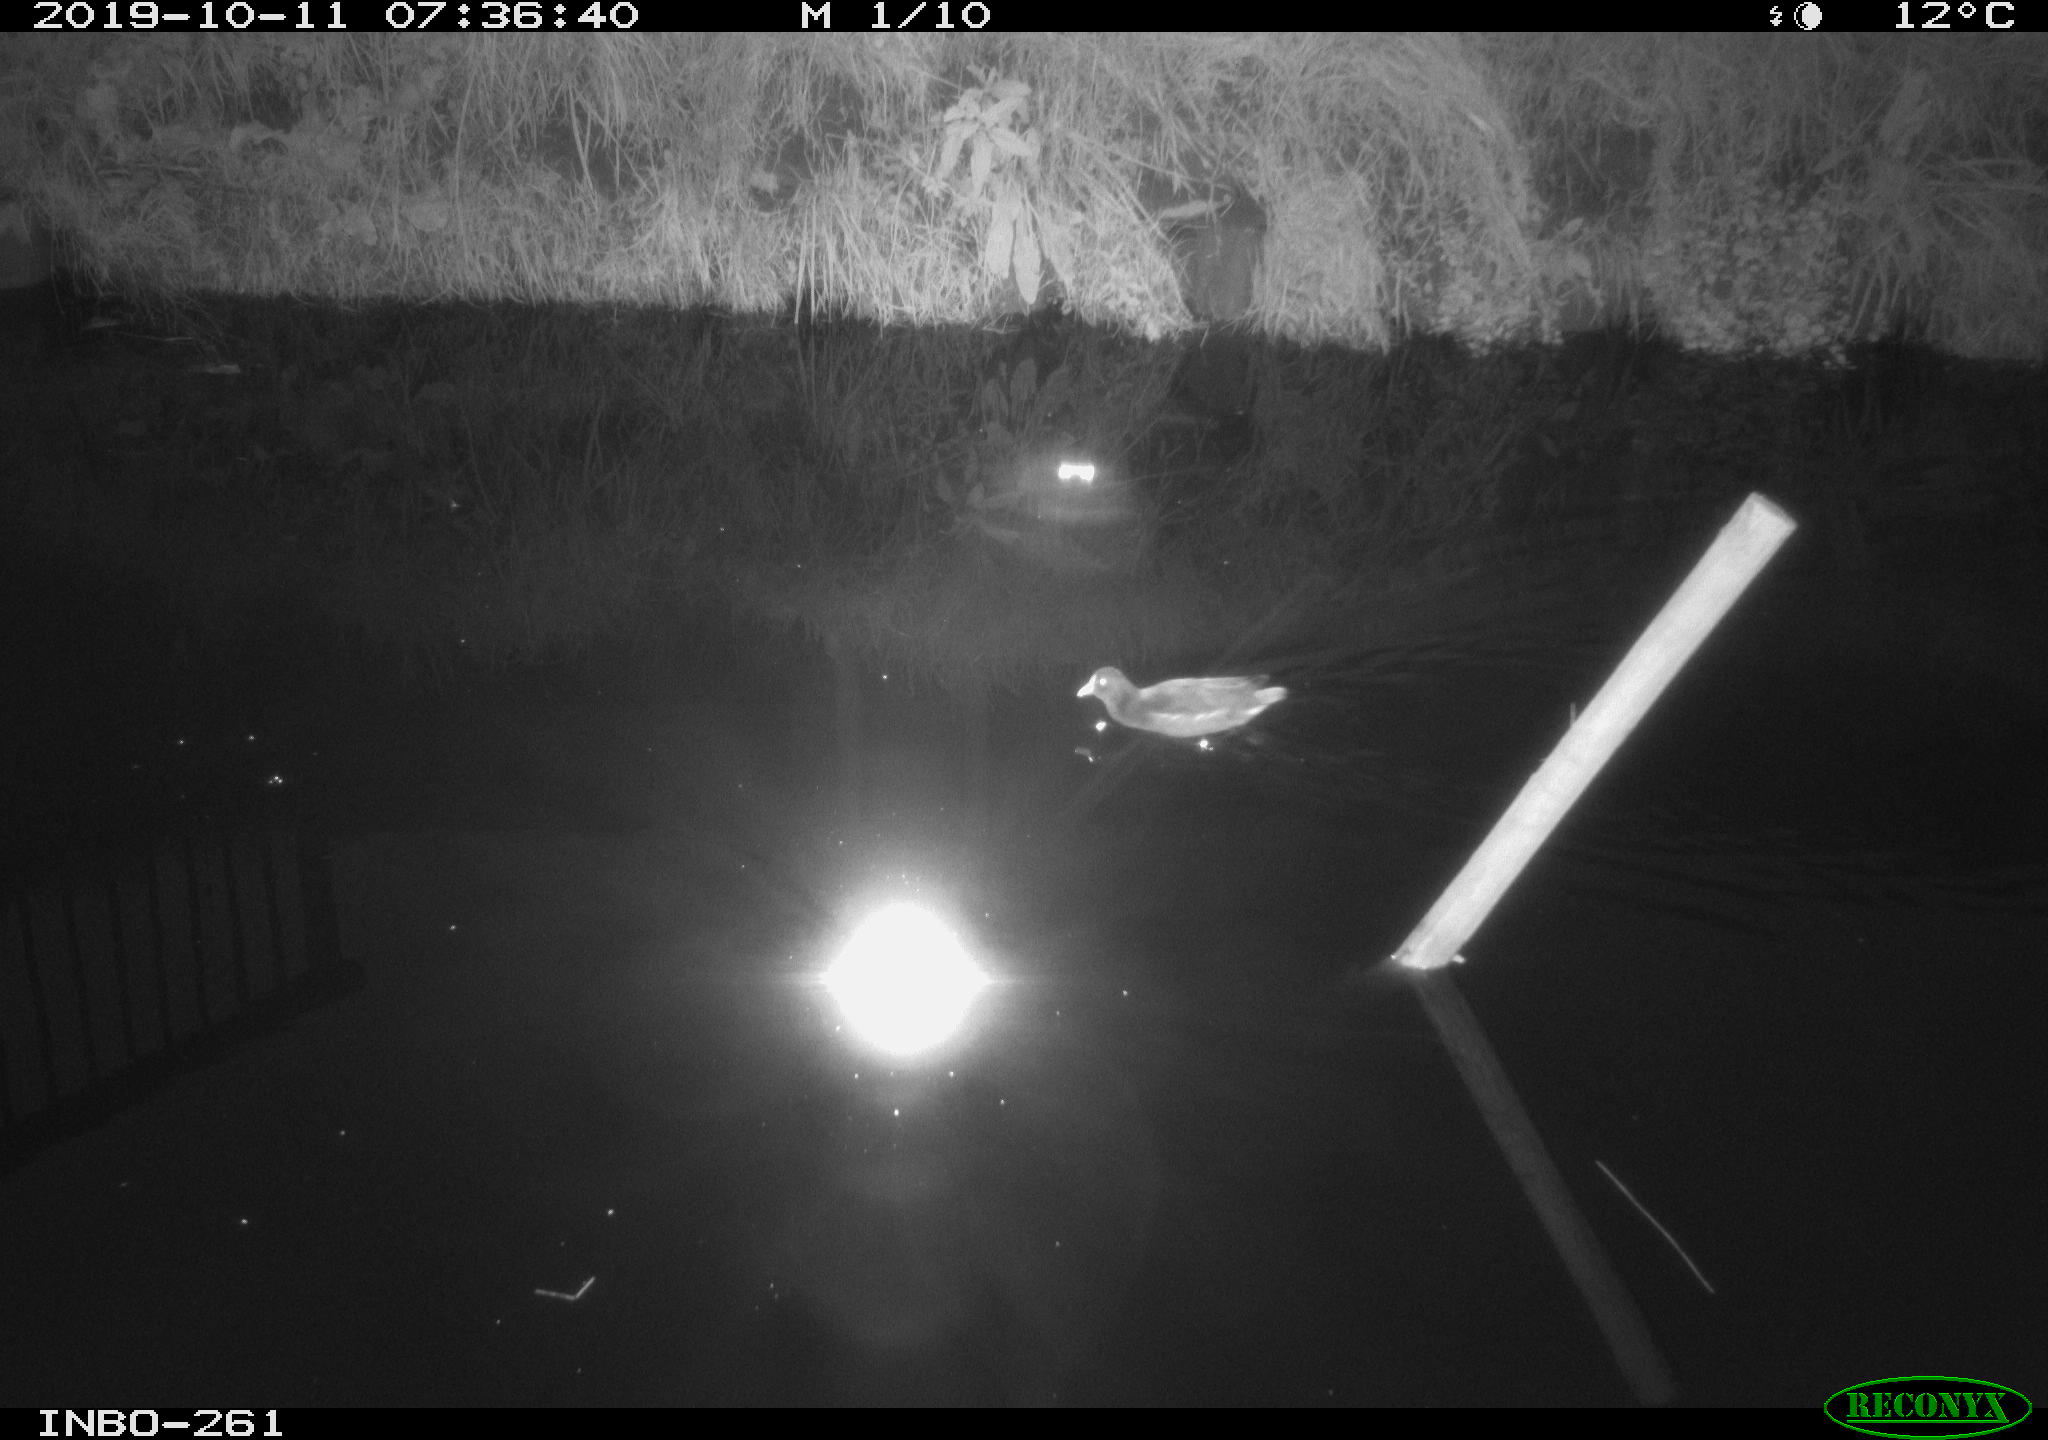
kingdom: Animalia
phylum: Chordata
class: Aves
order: Gruiformes
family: Rallidae
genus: Gallinula
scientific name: Gallinula chloropus
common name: Common moorhen
